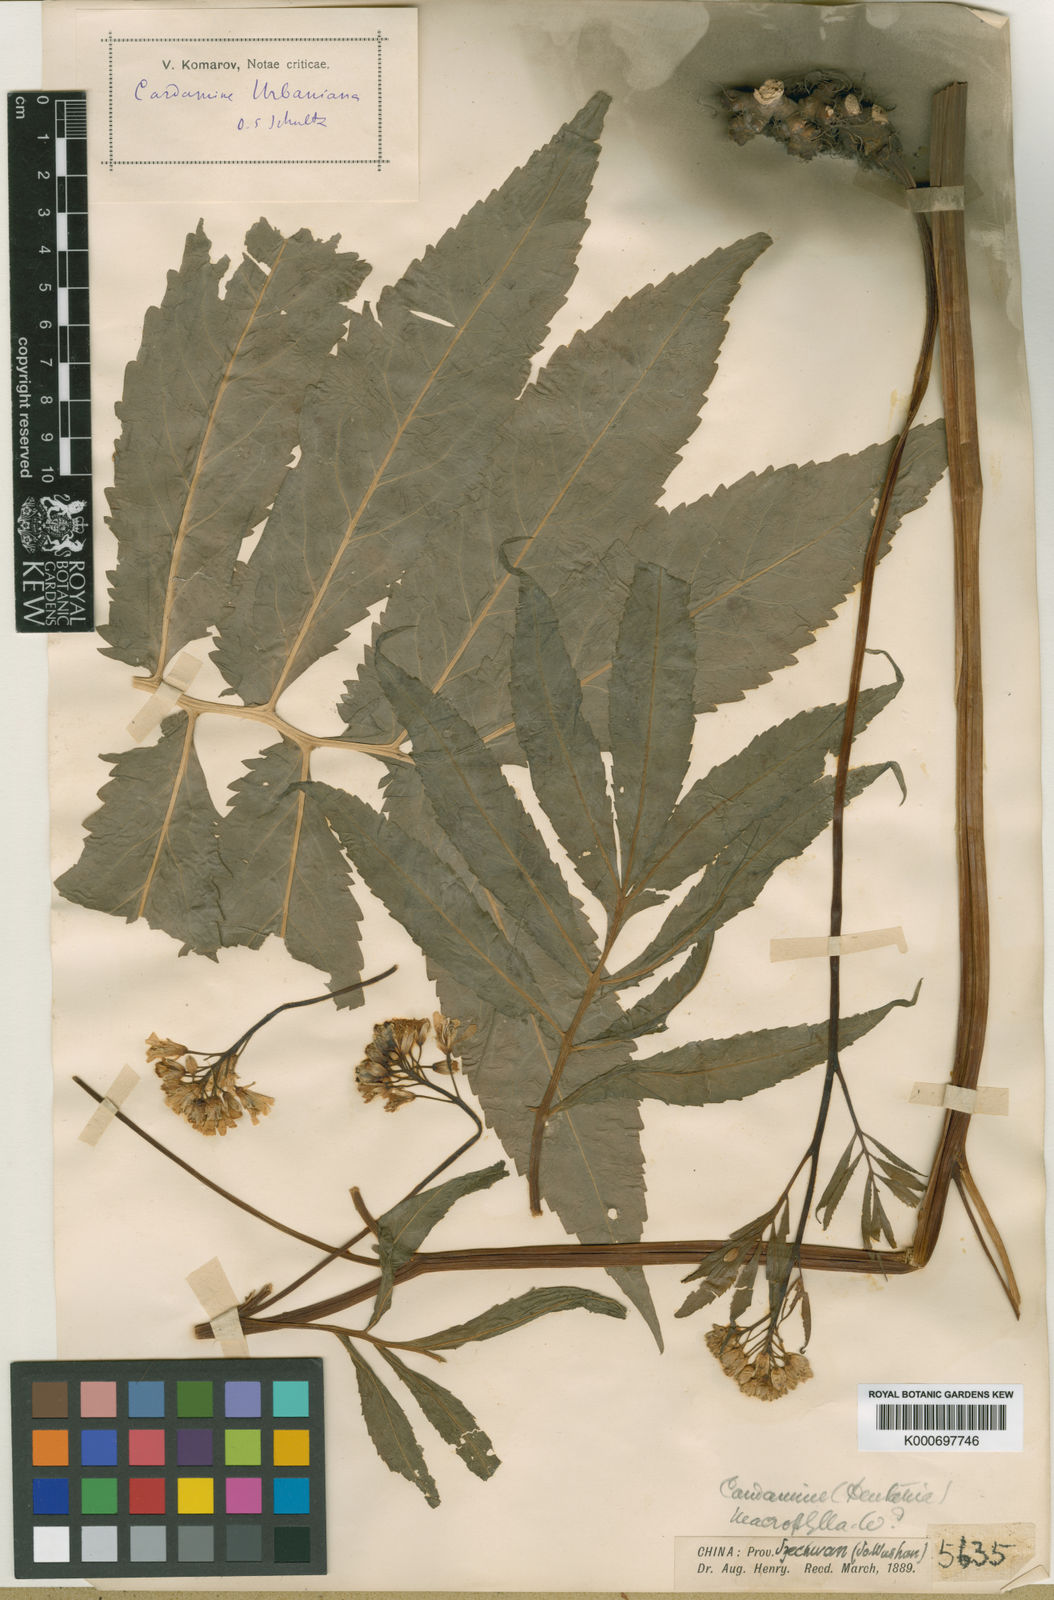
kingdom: Plantae
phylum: Tracheophyta
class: Magnoliopsida
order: Brassicales
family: Brassicaceae
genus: Cardamine
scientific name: Cardamine macrophylla
